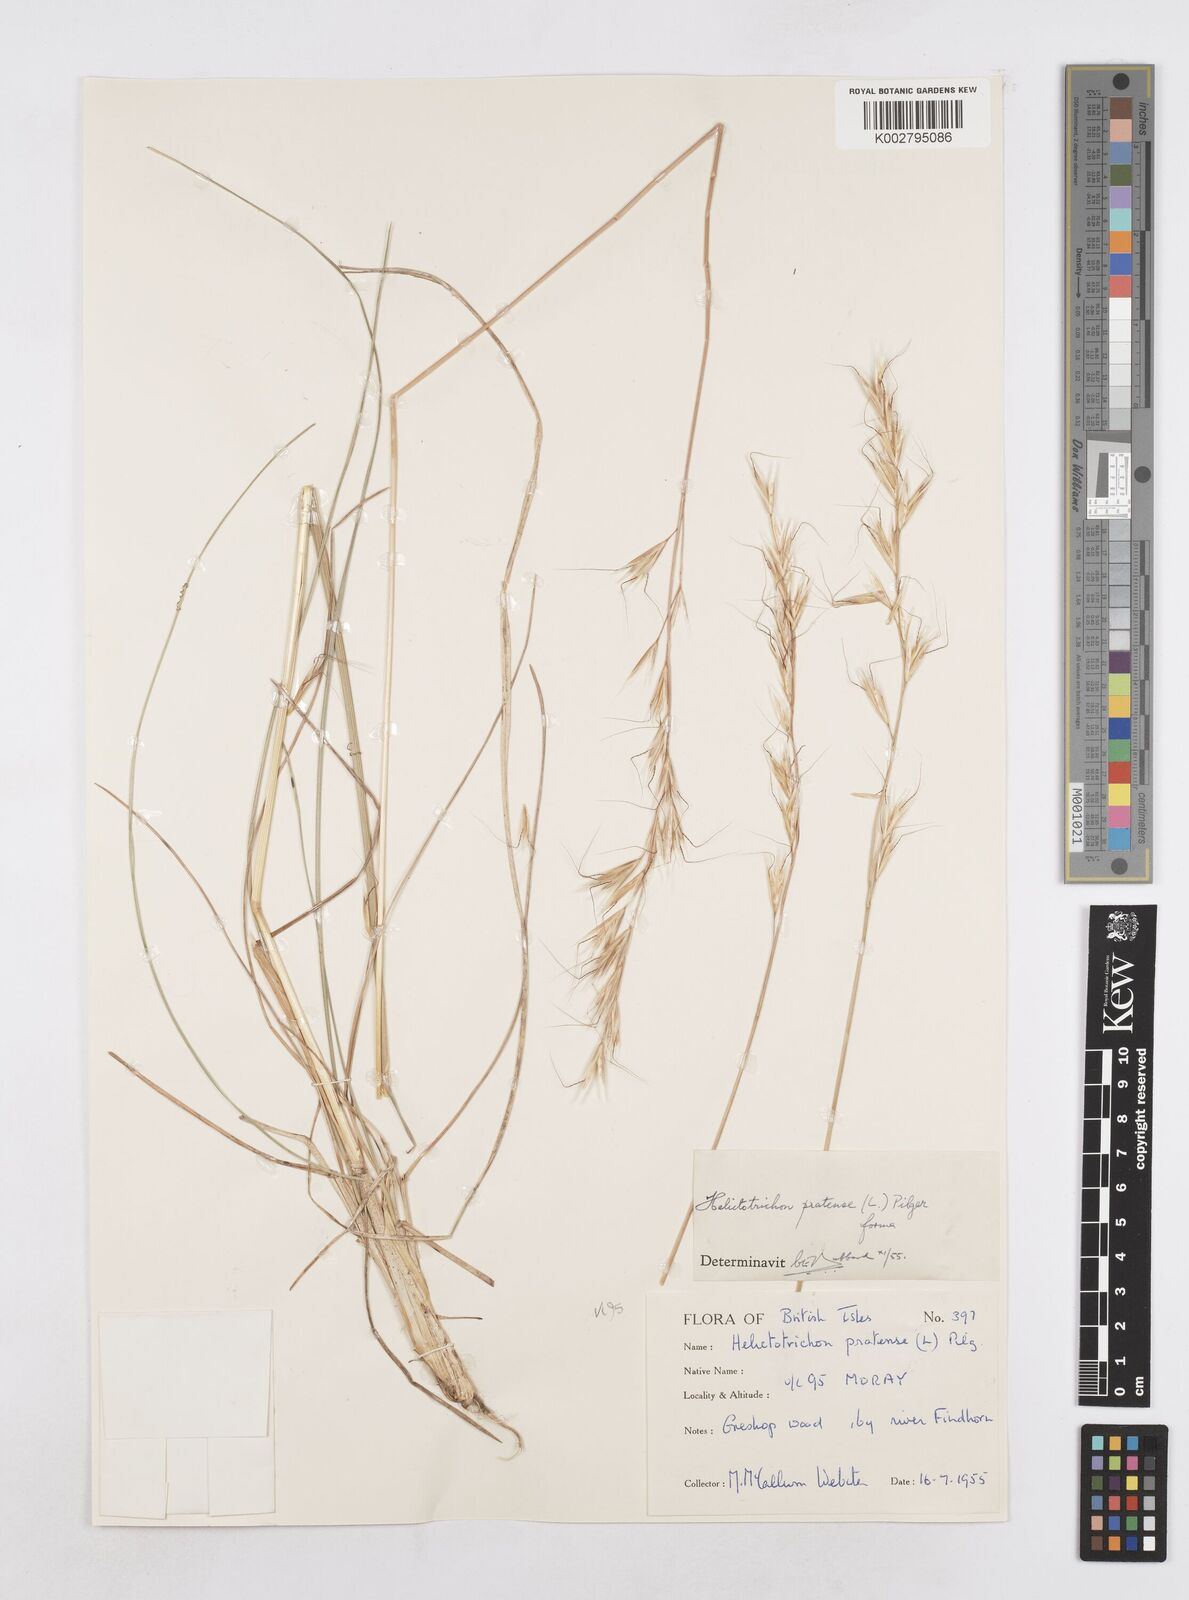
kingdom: Plantae
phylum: Tracheophyta
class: Liliopsida
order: Poales
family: Poaceae
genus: Helictochloa
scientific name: Helictochloa pratensis
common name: Meadow oat grass
